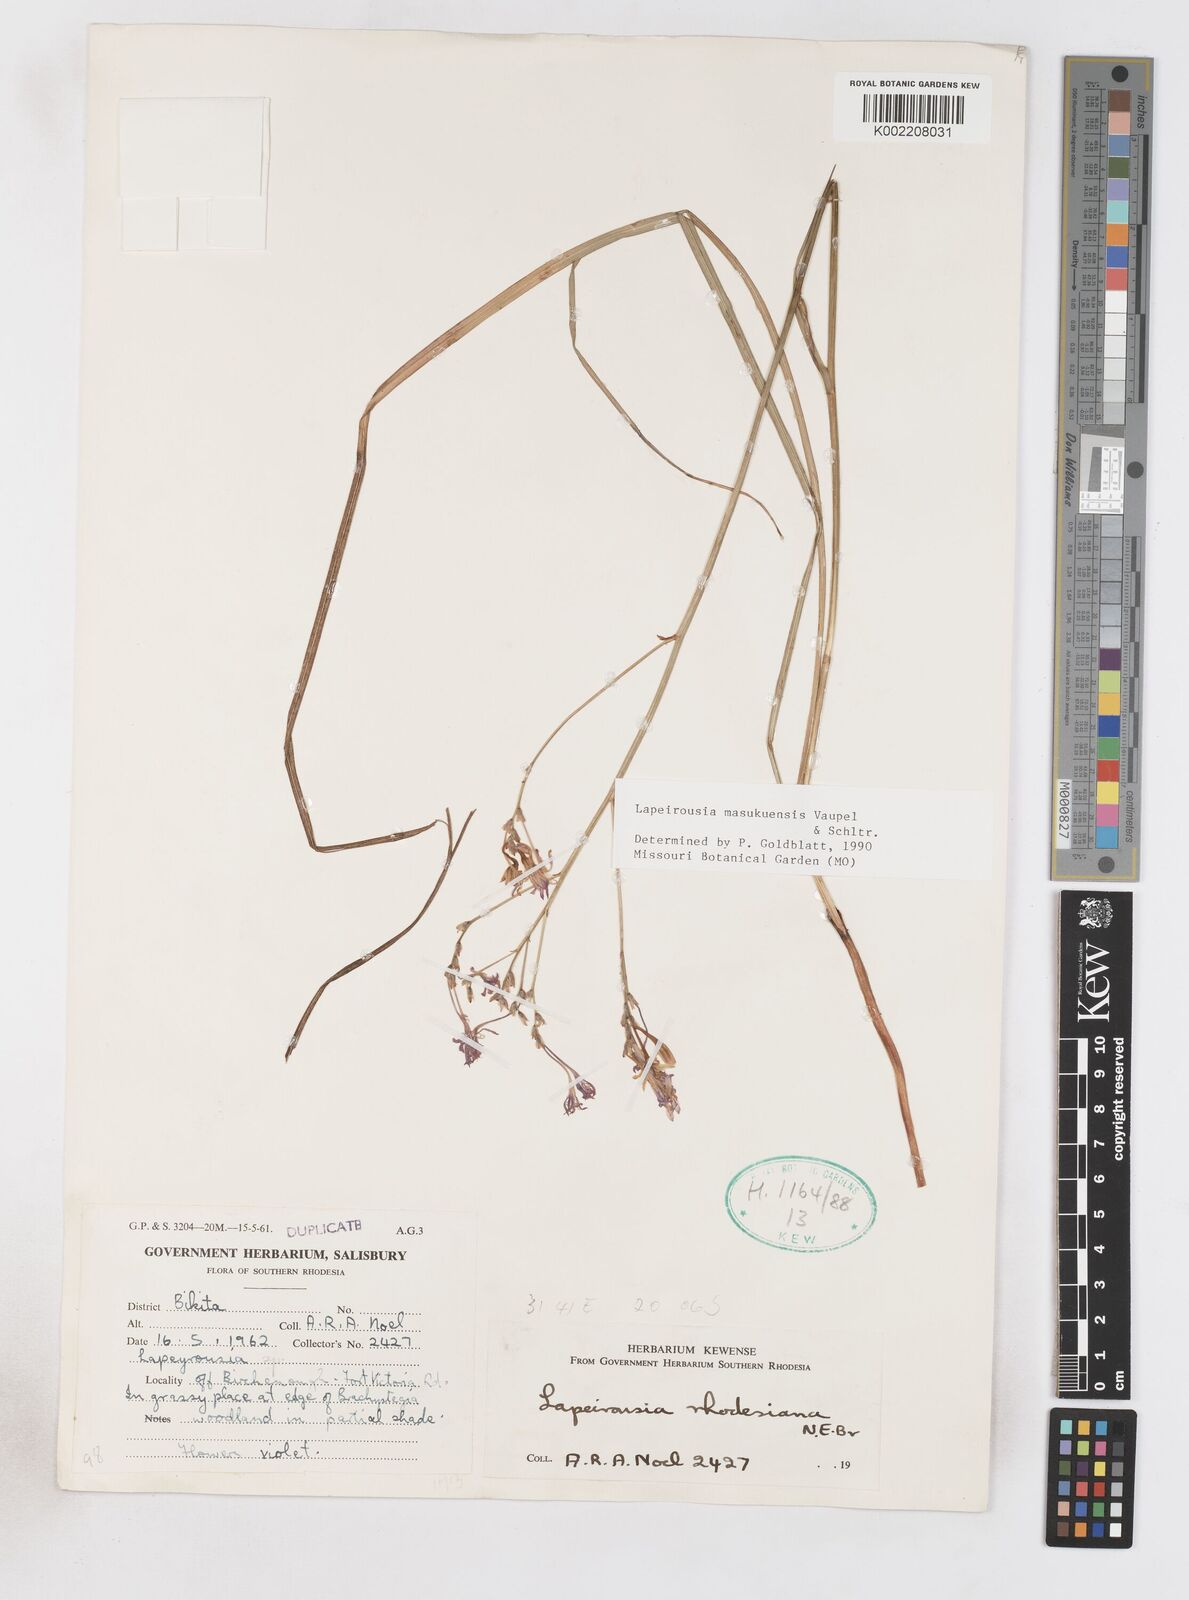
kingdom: Plantae
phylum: Tracheophyta
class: Liliopsida
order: Asparagales
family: Iridaceae
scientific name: Iridaceae
